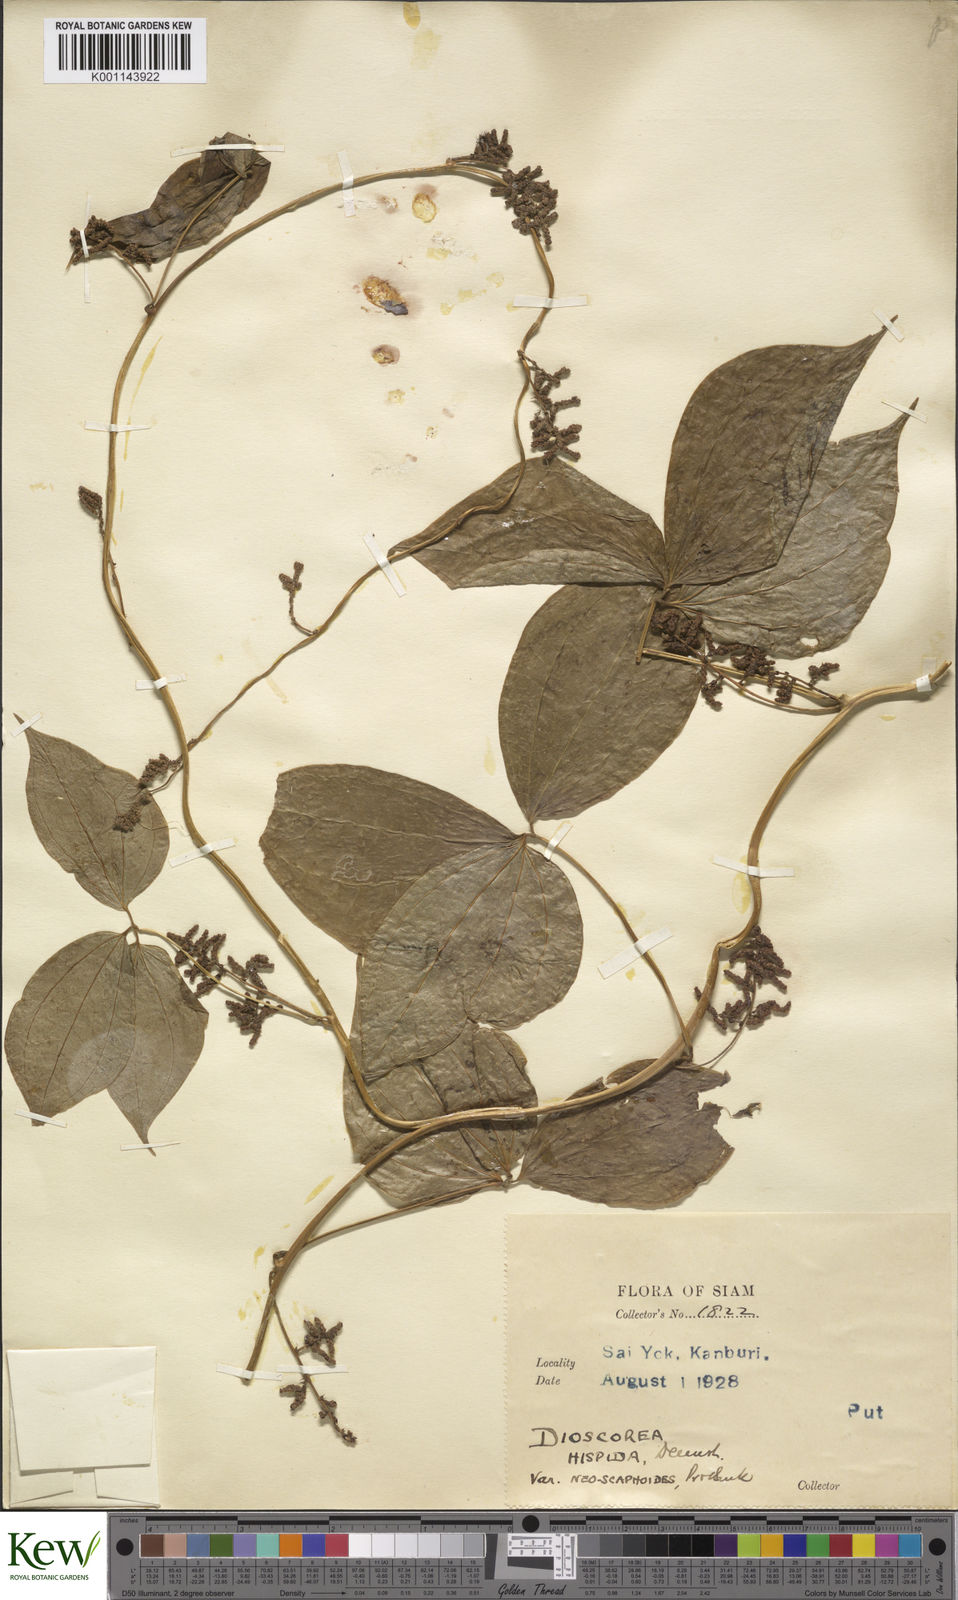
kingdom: Plantae
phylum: Tracheophyta
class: Liliopsida
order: Dioscoreales
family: Dioscoreaceae
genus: Dioscorea
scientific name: Dioscorea hispida
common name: Asiatic bitter yam
